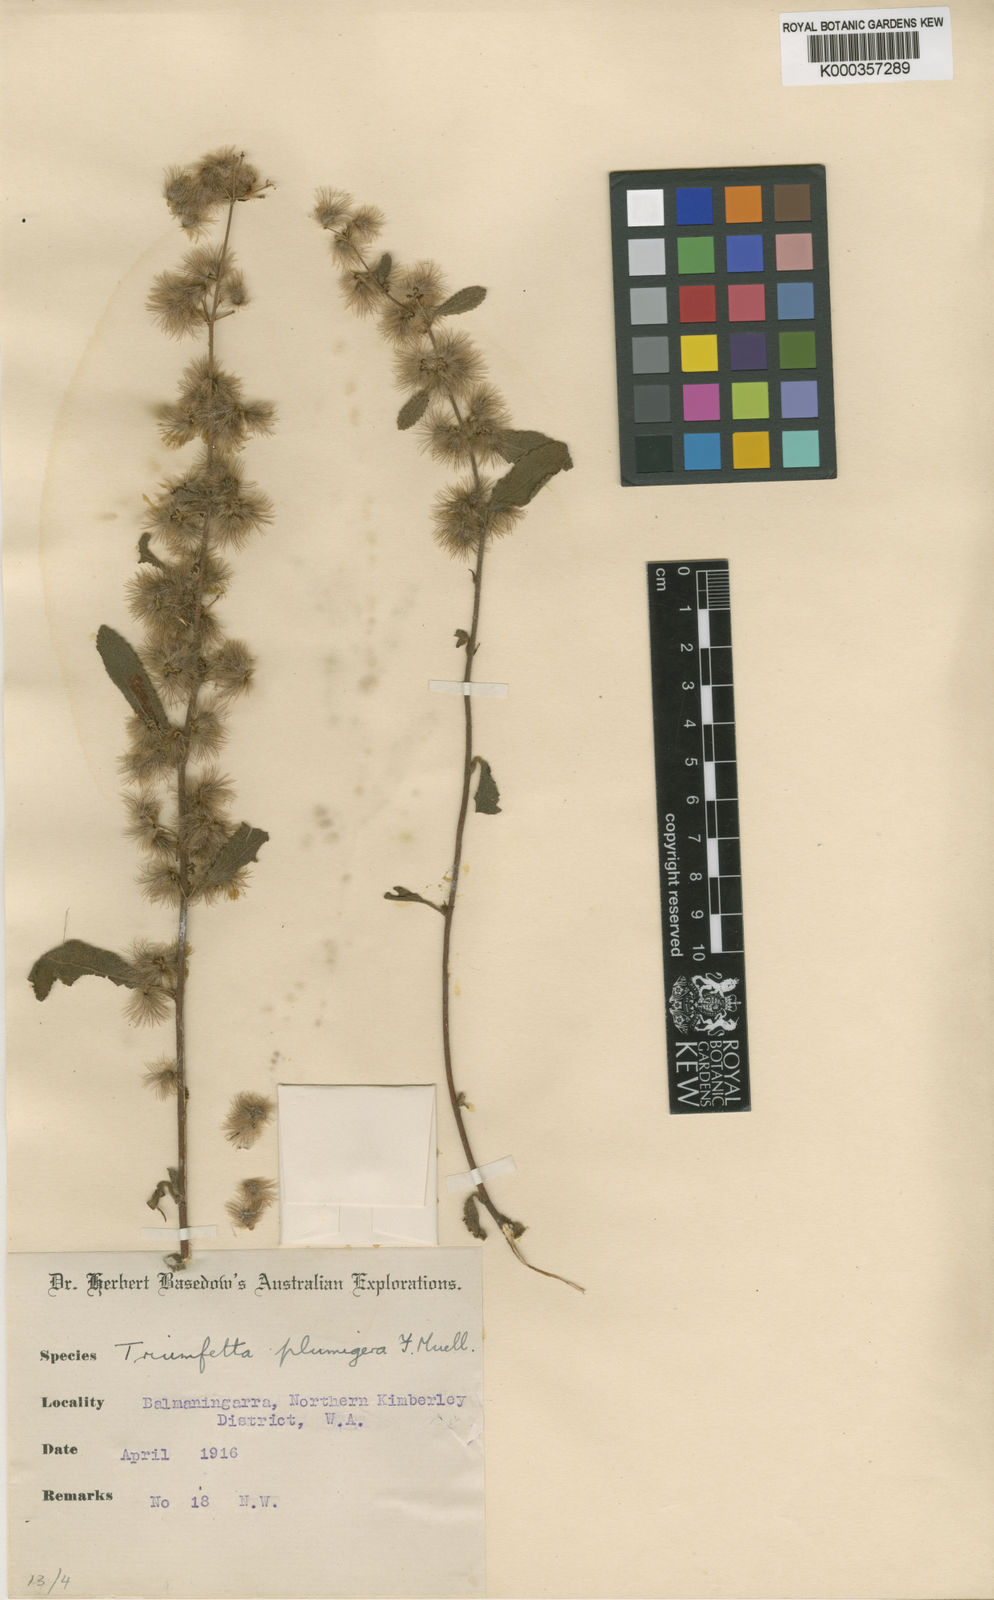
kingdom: Plantae
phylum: Tracheophyta
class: Magnoliopsida
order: Malvales
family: Malvaceae
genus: Triumfetta
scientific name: Triumfetta plumigera
